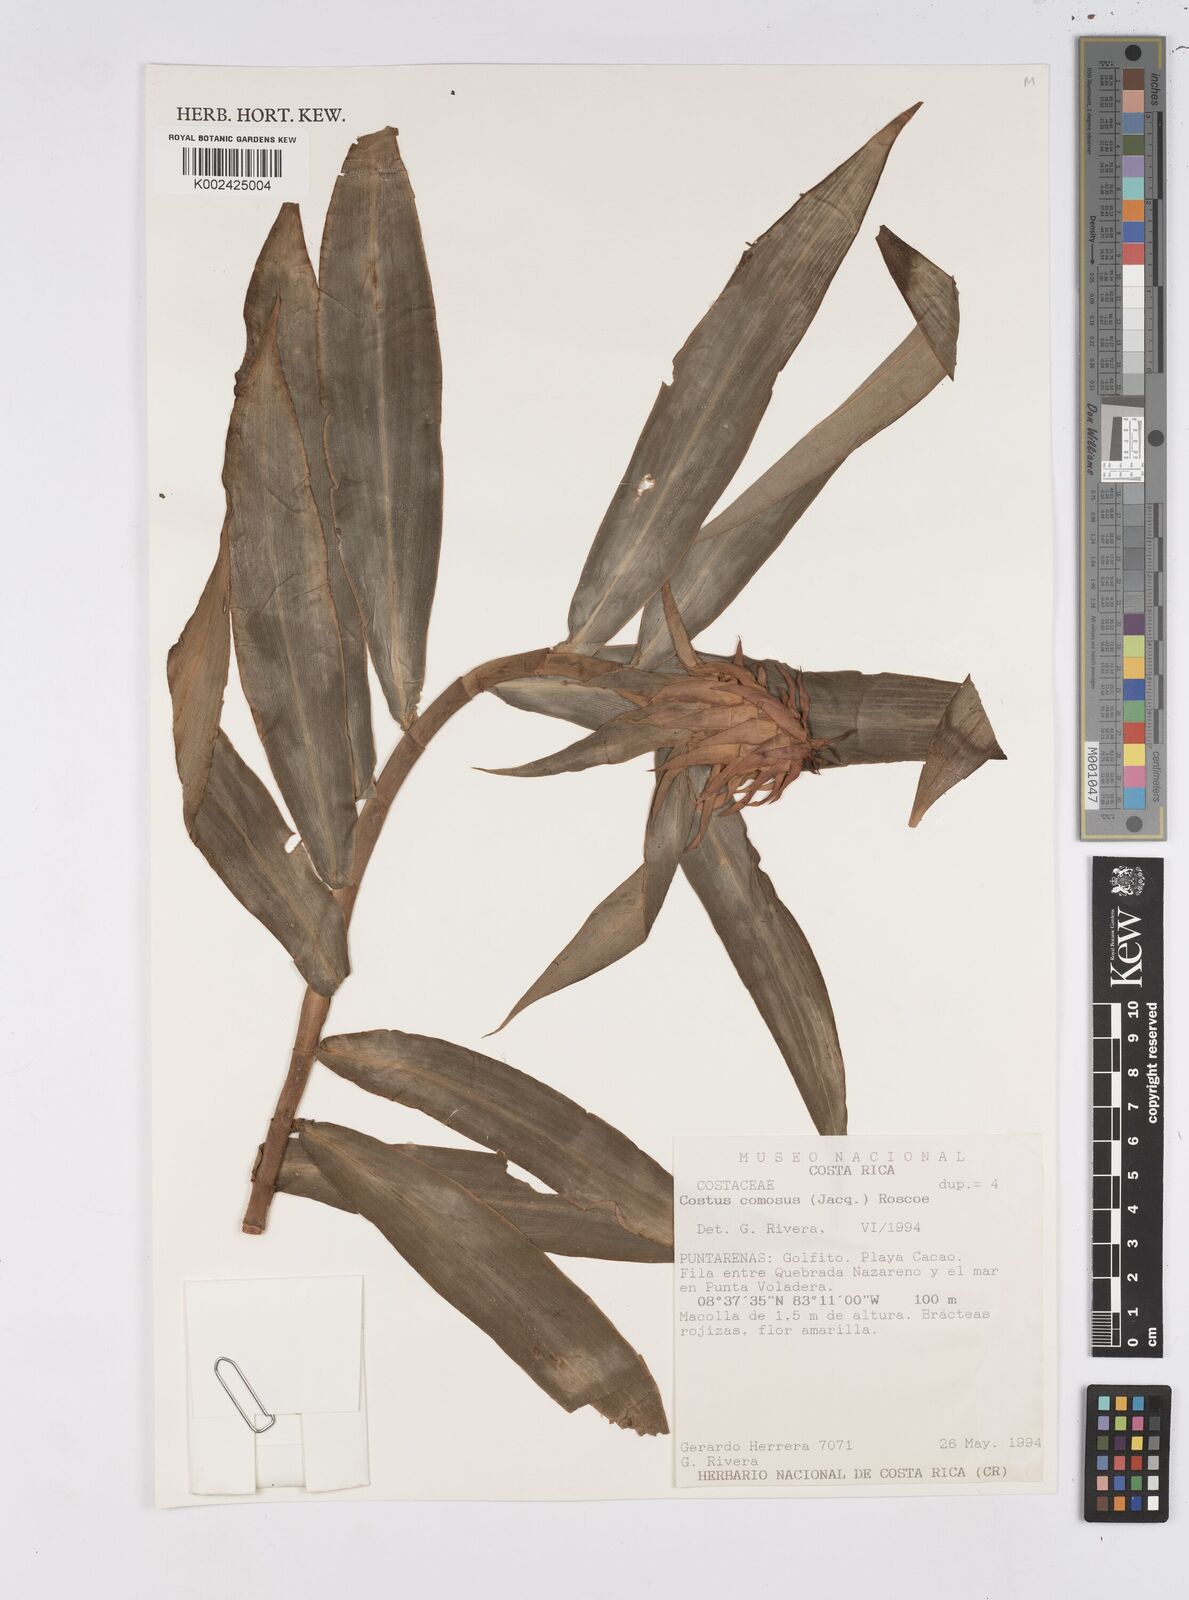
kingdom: Plantae
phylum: Tracheophyta
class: Liliopsida
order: Zingiberales
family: Costaceae
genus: Costus
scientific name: Costus comosus
